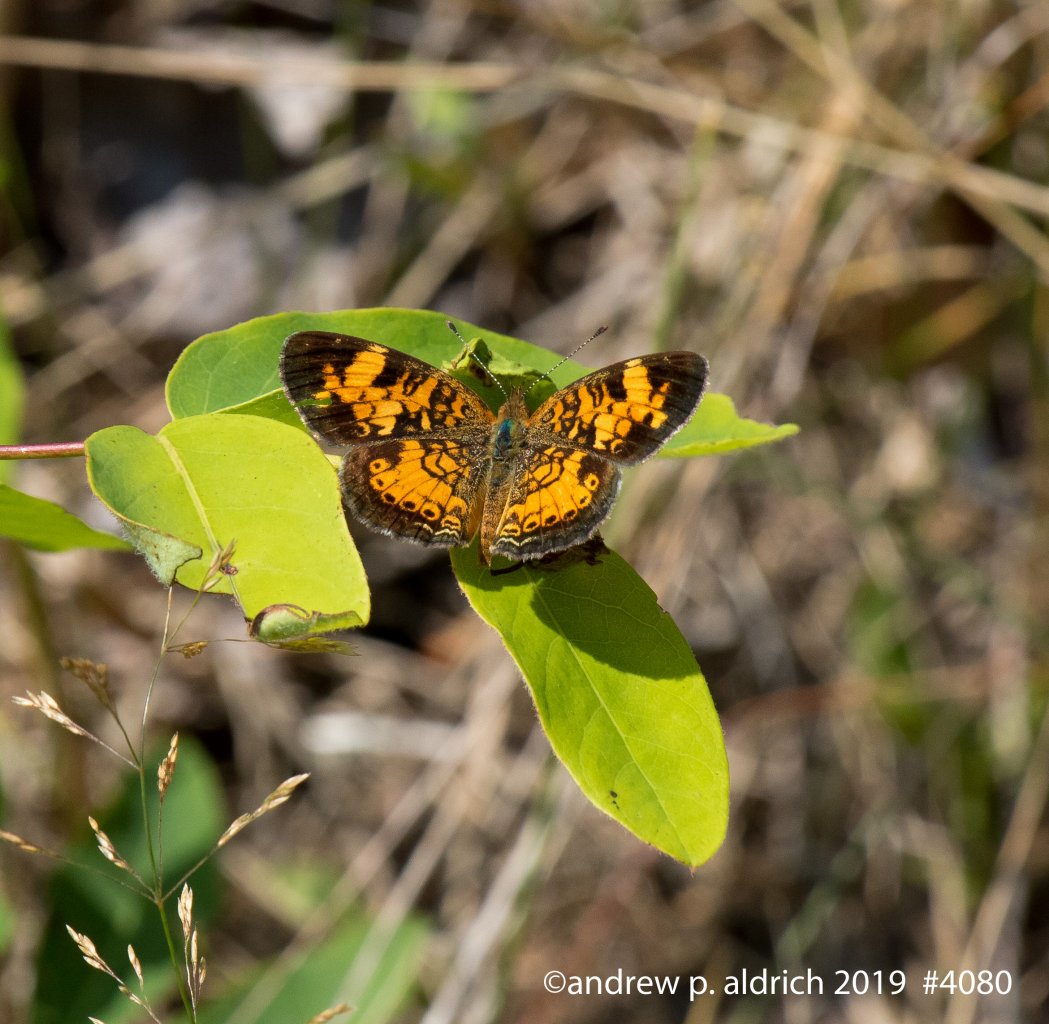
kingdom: Animalia
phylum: Arthropoda
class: Insecta
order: Lepidoptera
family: Nymphalidae
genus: Phyciodes
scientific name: Phyciodes
